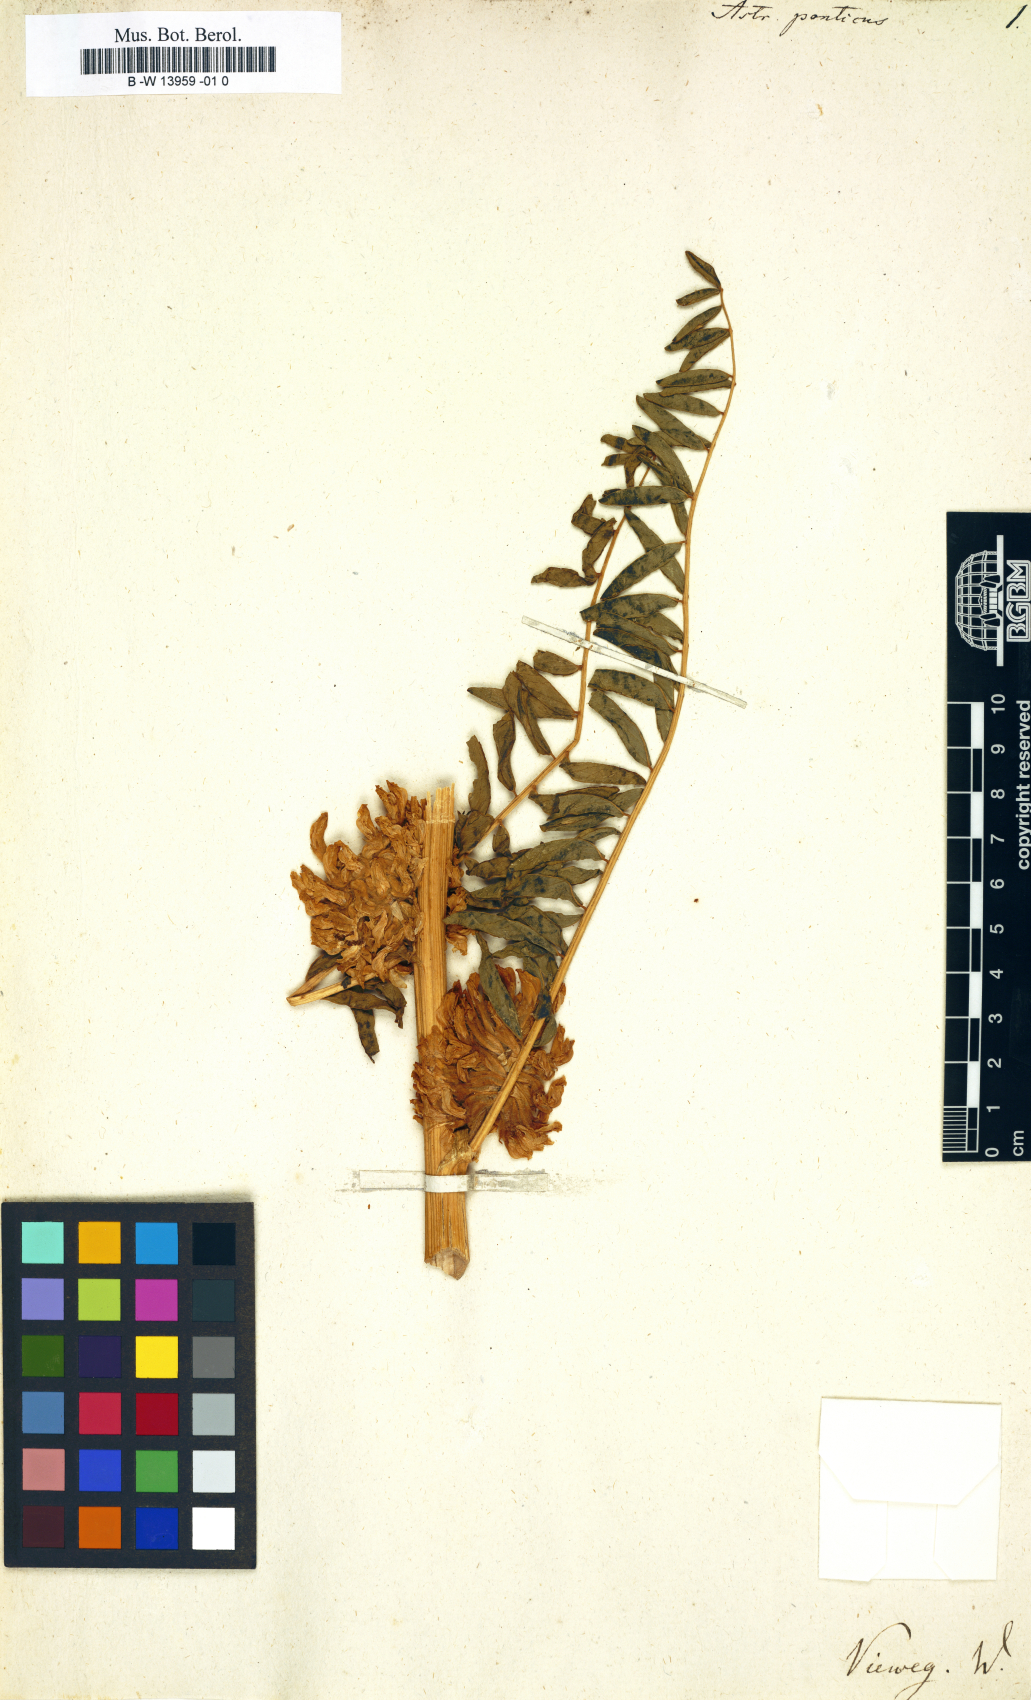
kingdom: Plantae
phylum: Tracheophyta
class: Magnoliopsida
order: Fabales
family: Fabaceae
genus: Astragalus
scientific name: Astragalus ponticus
